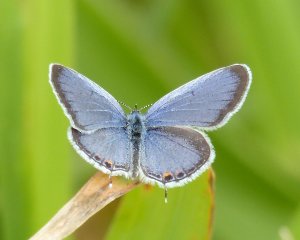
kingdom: Animalia
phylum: Arthropoda
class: Insecta
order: Lepidoptera
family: Lycaenidae
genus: Elkalyce
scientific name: Elkalyce comyntas
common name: Eastern Tailed-Blue
